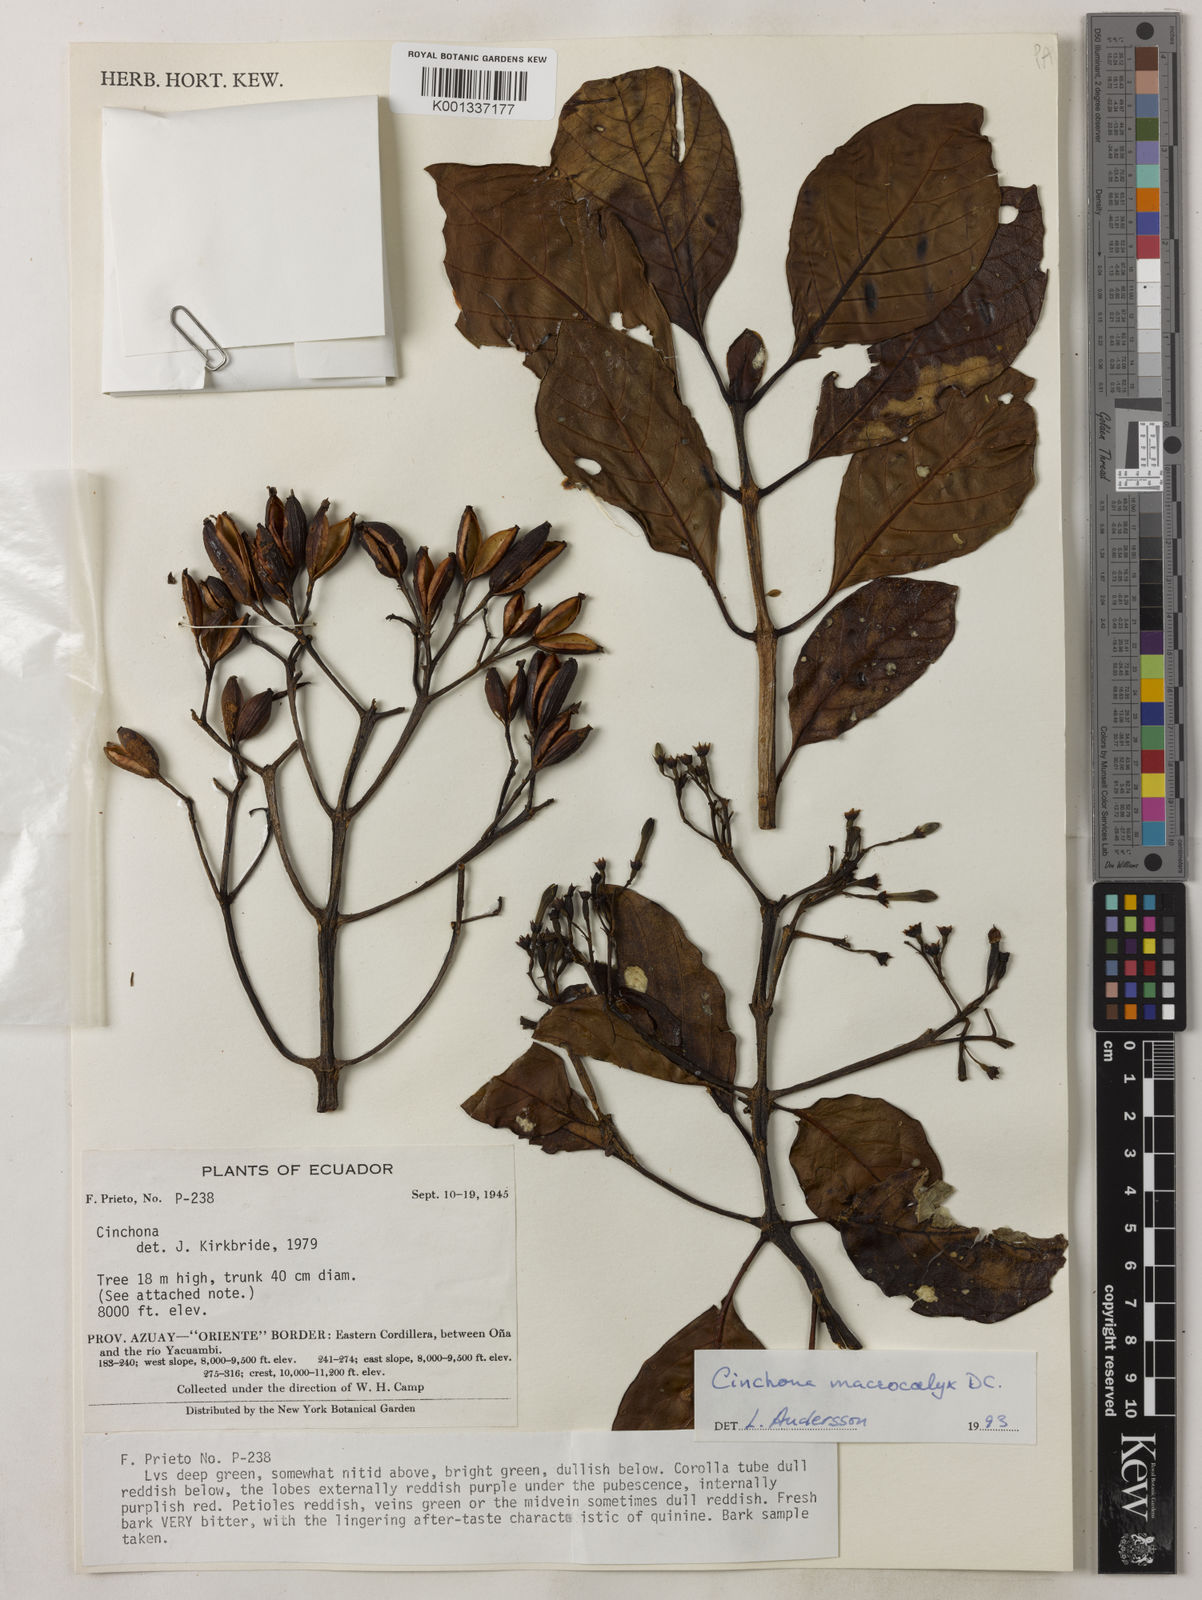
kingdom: Plantae
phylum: Tracheophyta
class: Magnoliopsida
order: Gentianales
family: Rubiaceae
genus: Cinchona
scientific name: Cinchona macrocalyx
